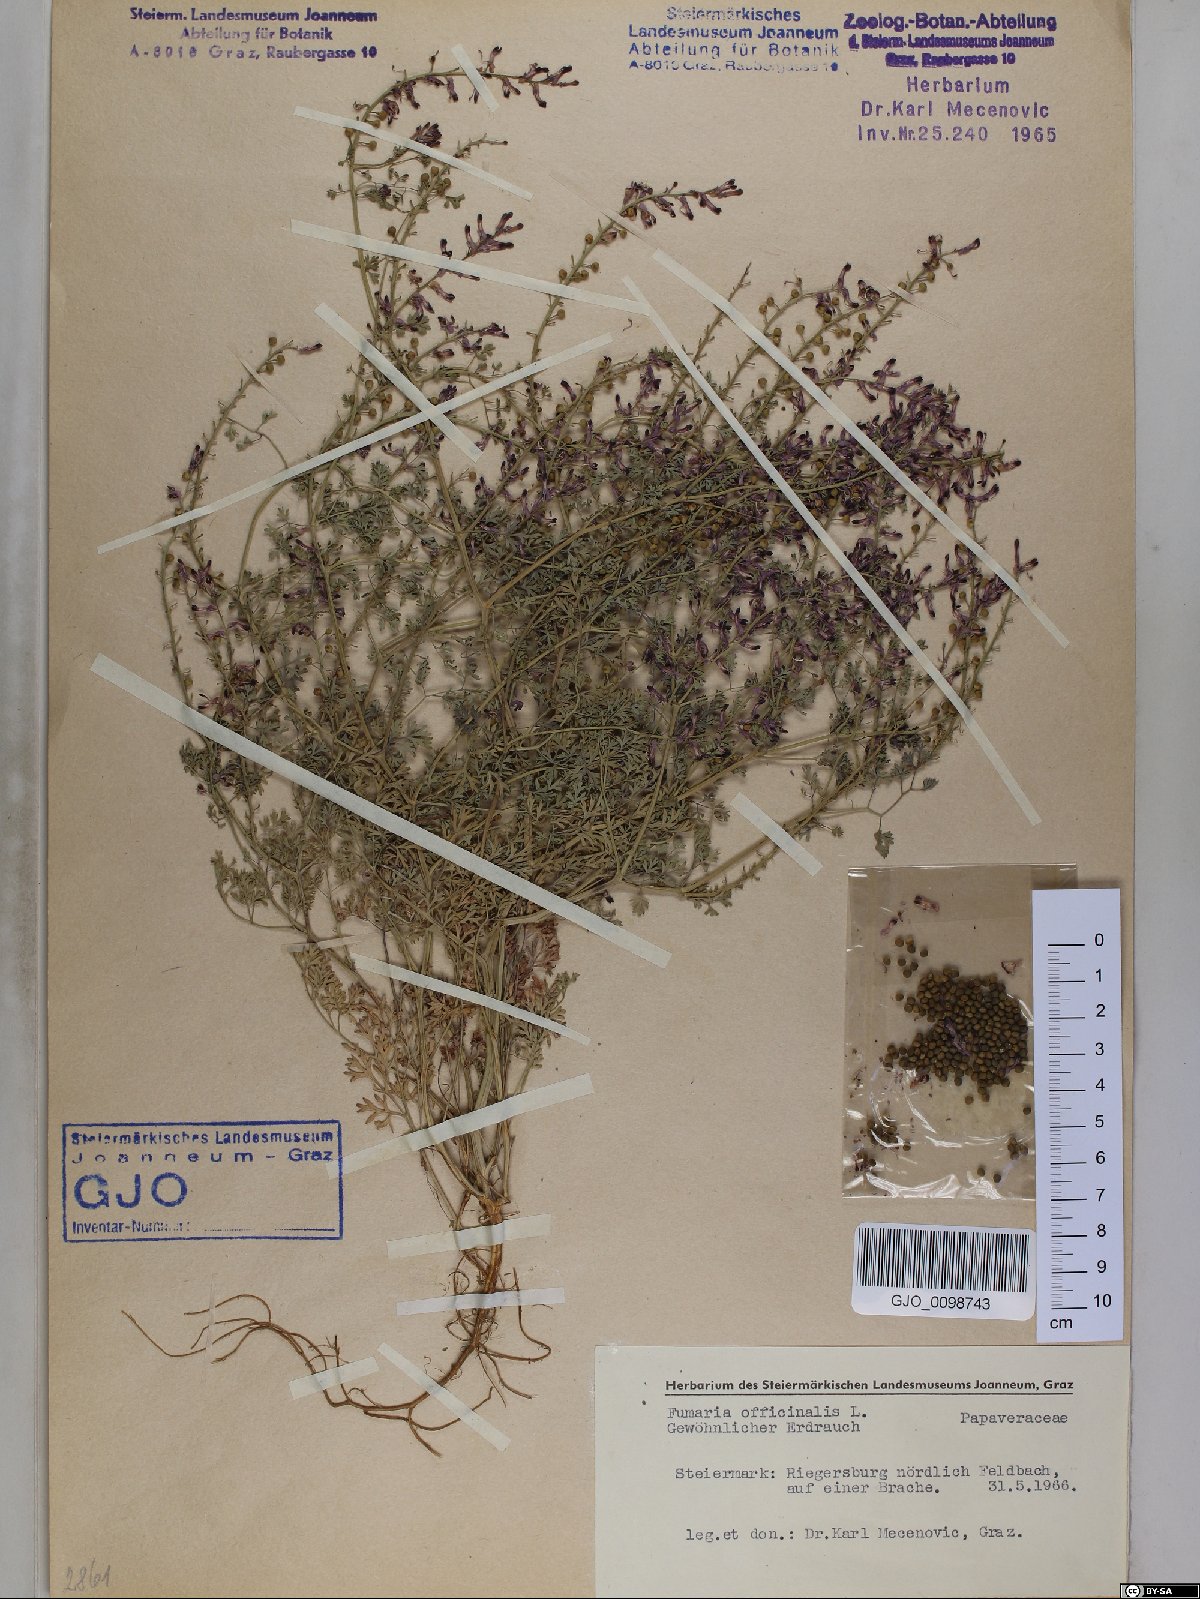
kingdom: Plantae
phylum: Tracheophyta
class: Magnoliopsida
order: Ranunculales
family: Papaveraceae
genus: Fumaria
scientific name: Fumaria officinalis
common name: Common fumitory
